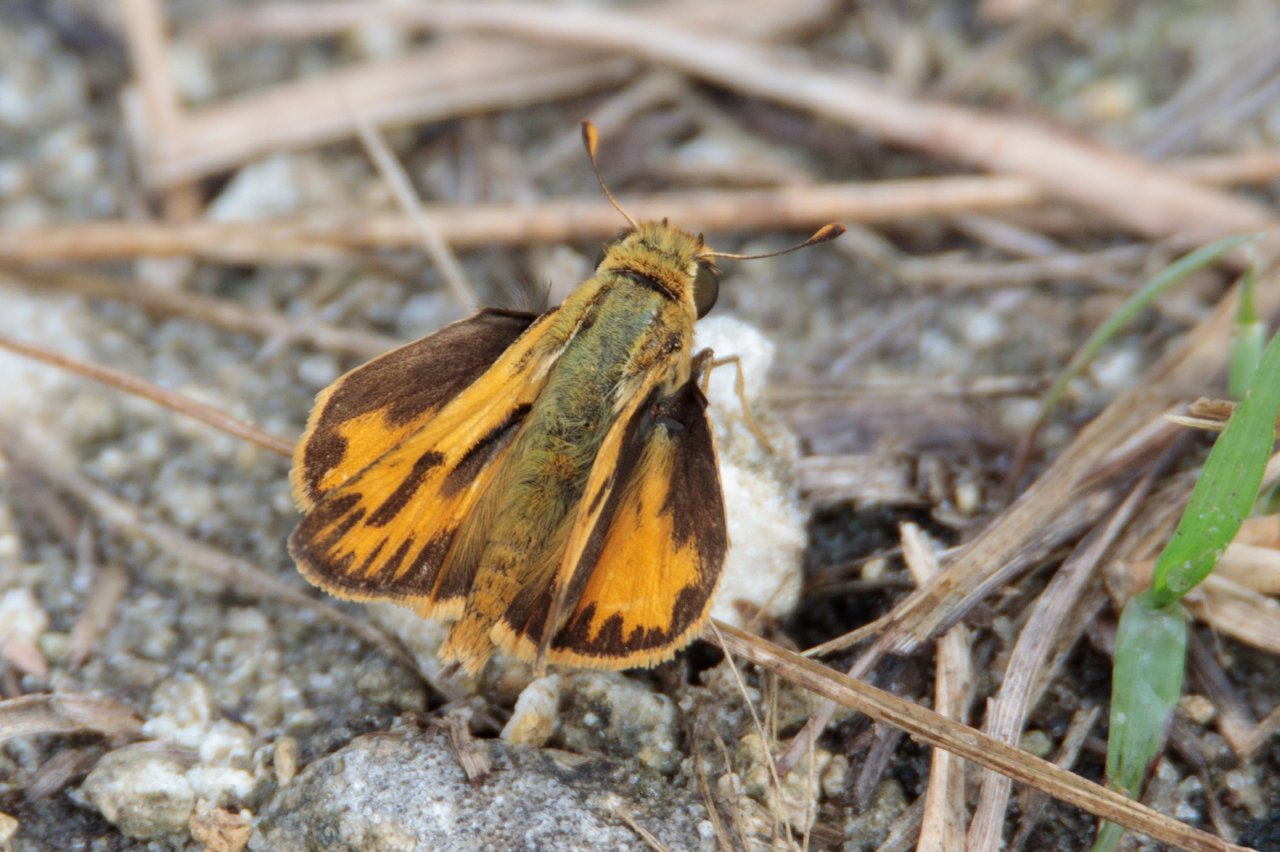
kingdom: Animalia
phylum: Arthropoda
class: Insecta
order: Lepidoptera
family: Hesperiidae
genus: Hylephila
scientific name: Hylephila phyleus
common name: Fiery Skipper
